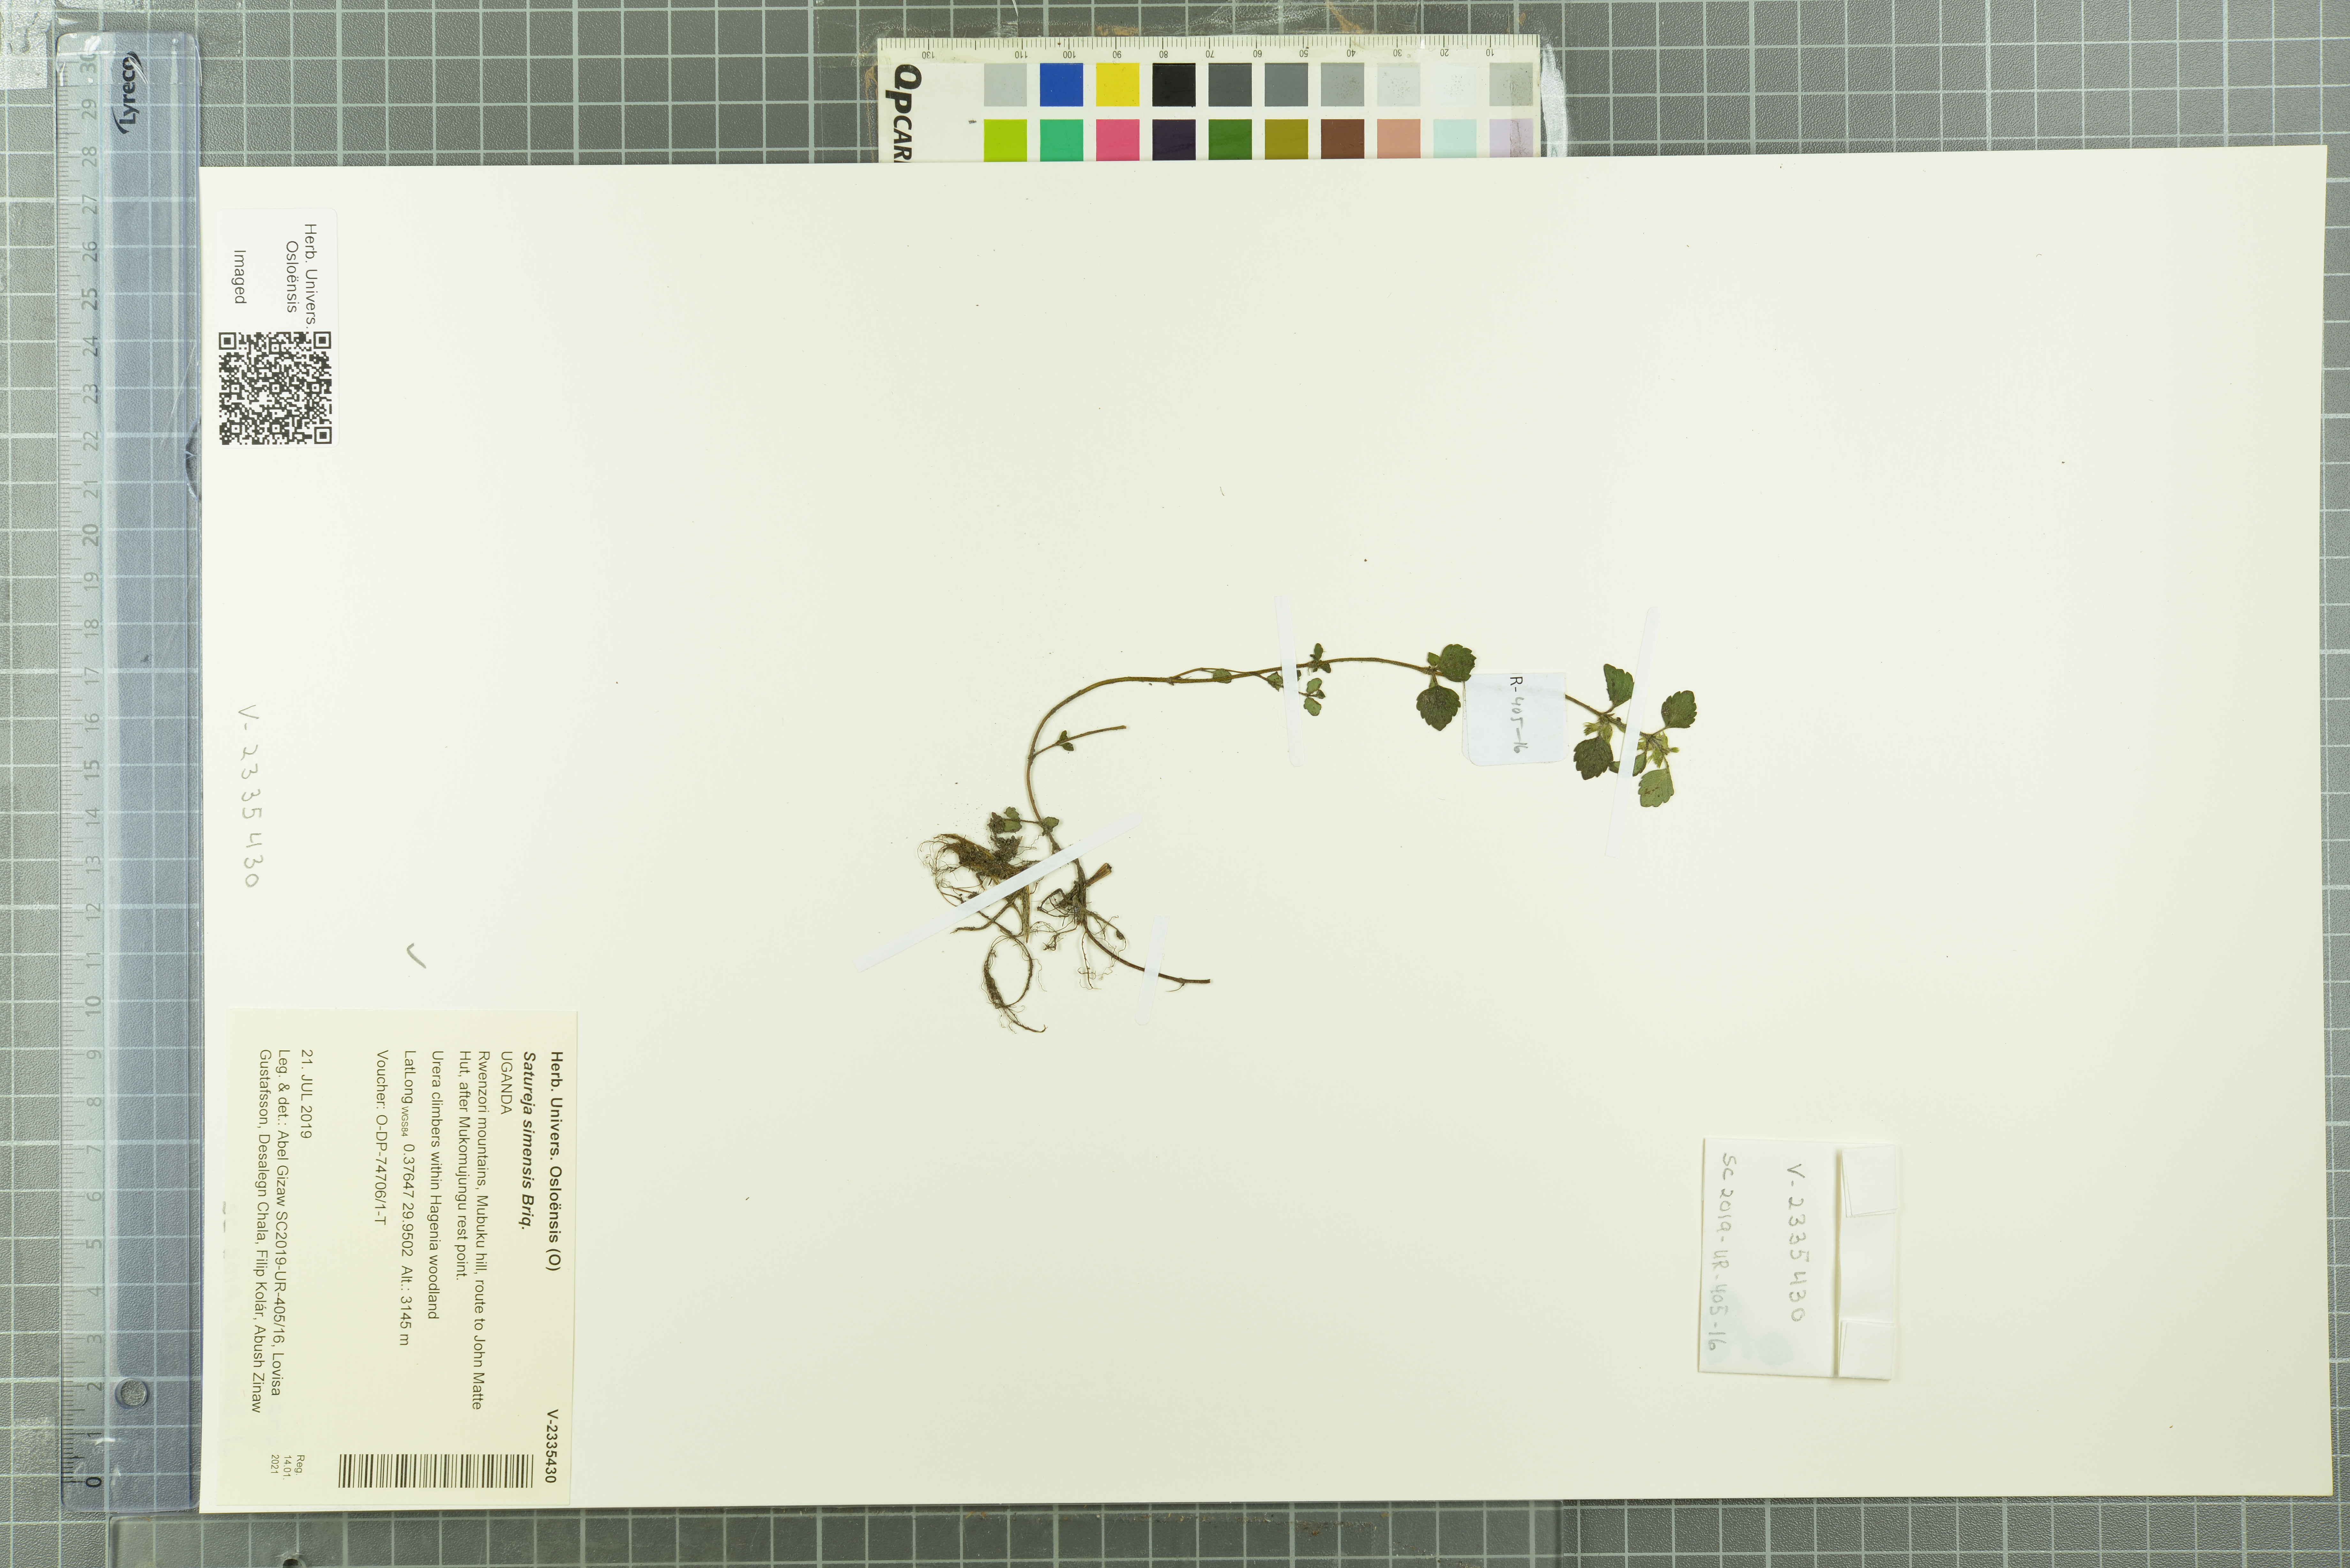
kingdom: Plantae
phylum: Tracheophyta
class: Magnoliopsida
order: Lamiales
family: Lamiaceae
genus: Clinopodium
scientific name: Clinopodium simense
